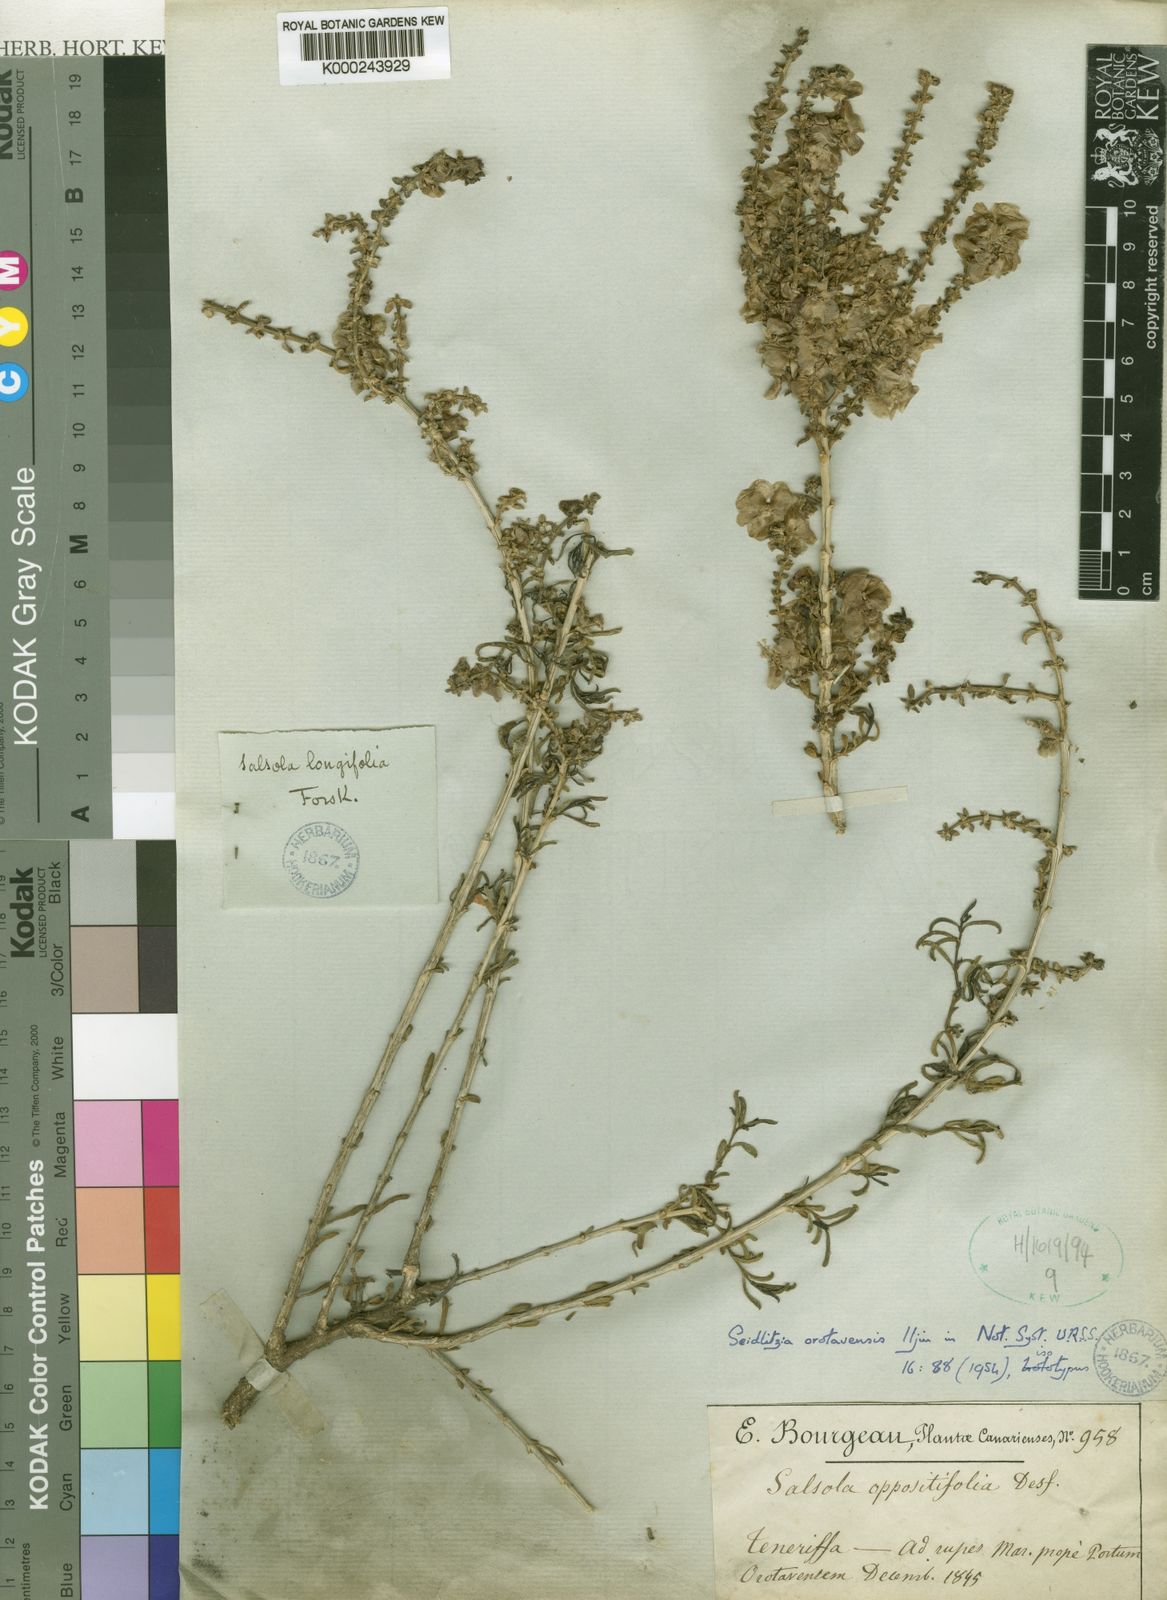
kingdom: Plantae
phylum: Tracheophyta
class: Magnoliopsida
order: Caryophyllales
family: Amaranthaceae
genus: Soda
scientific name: Soda oppositifolia
